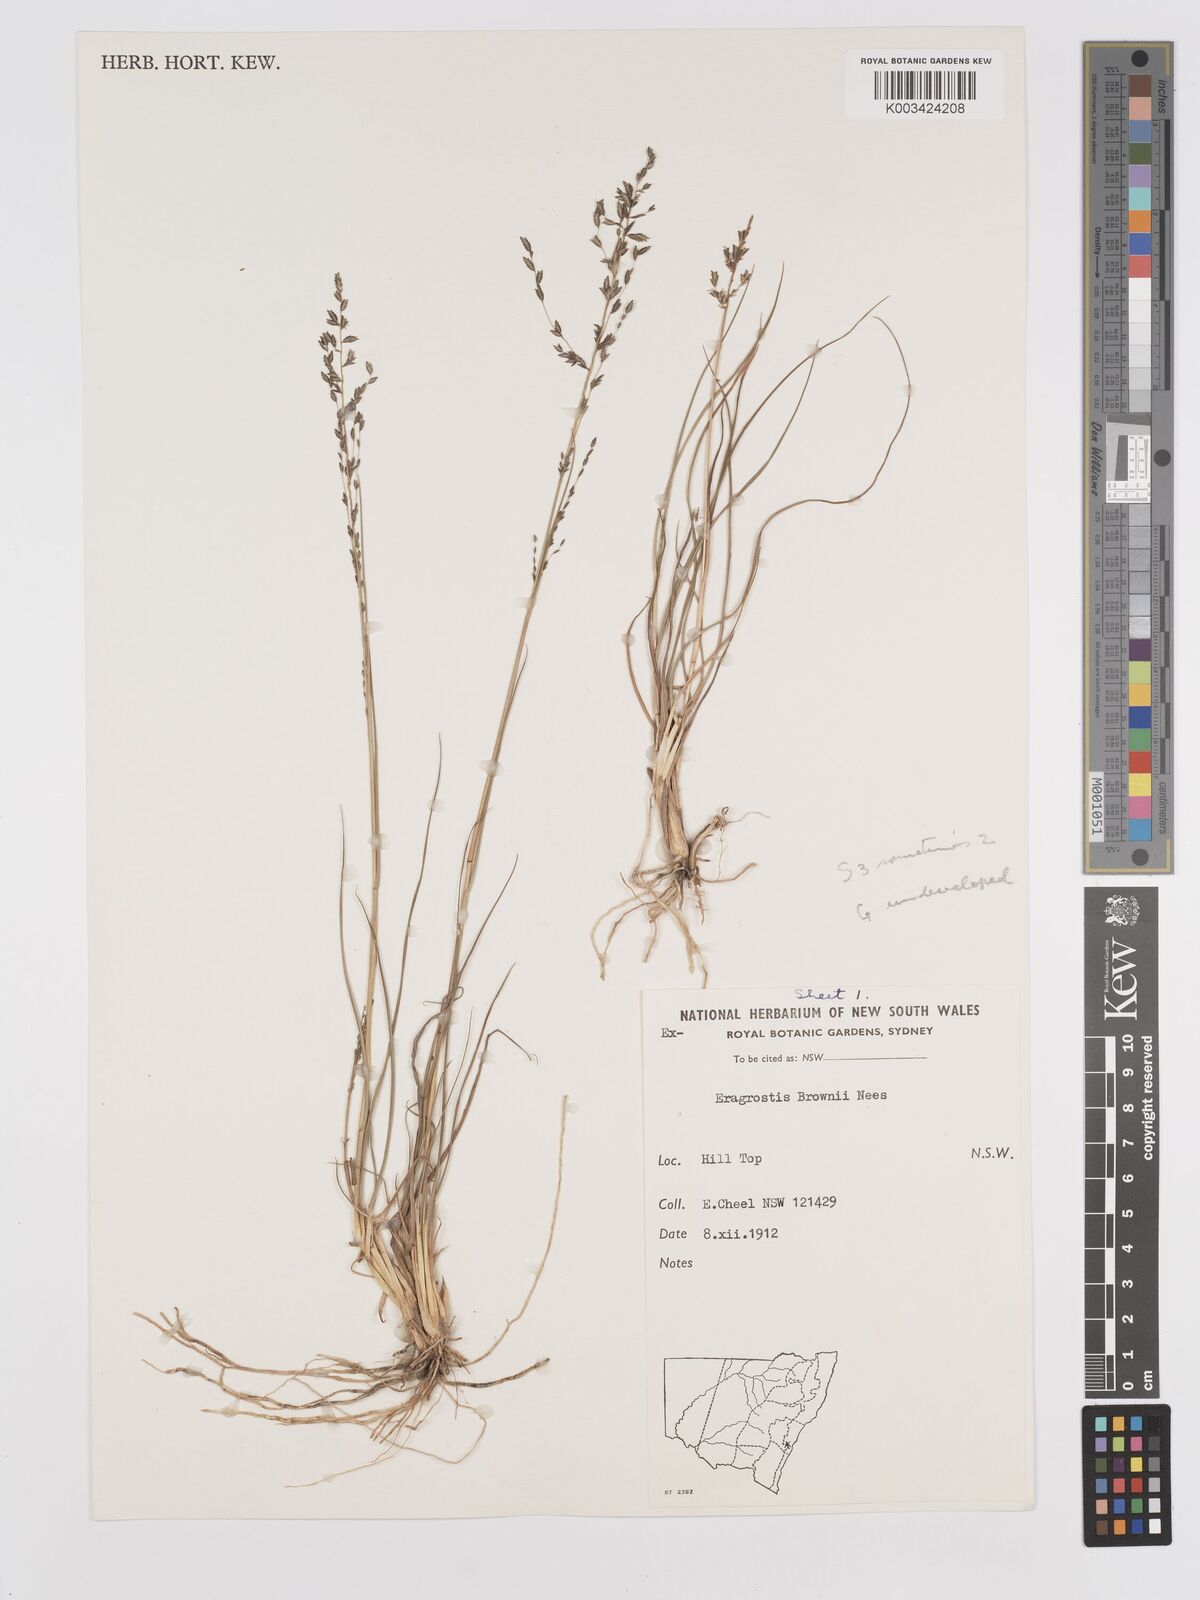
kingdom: Plantae
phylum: Tracheophyta
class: Liliopsida
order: Poales
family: Poaceae
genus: Eragrostis
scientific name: Eragrostis brownii
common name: Lovegrass
